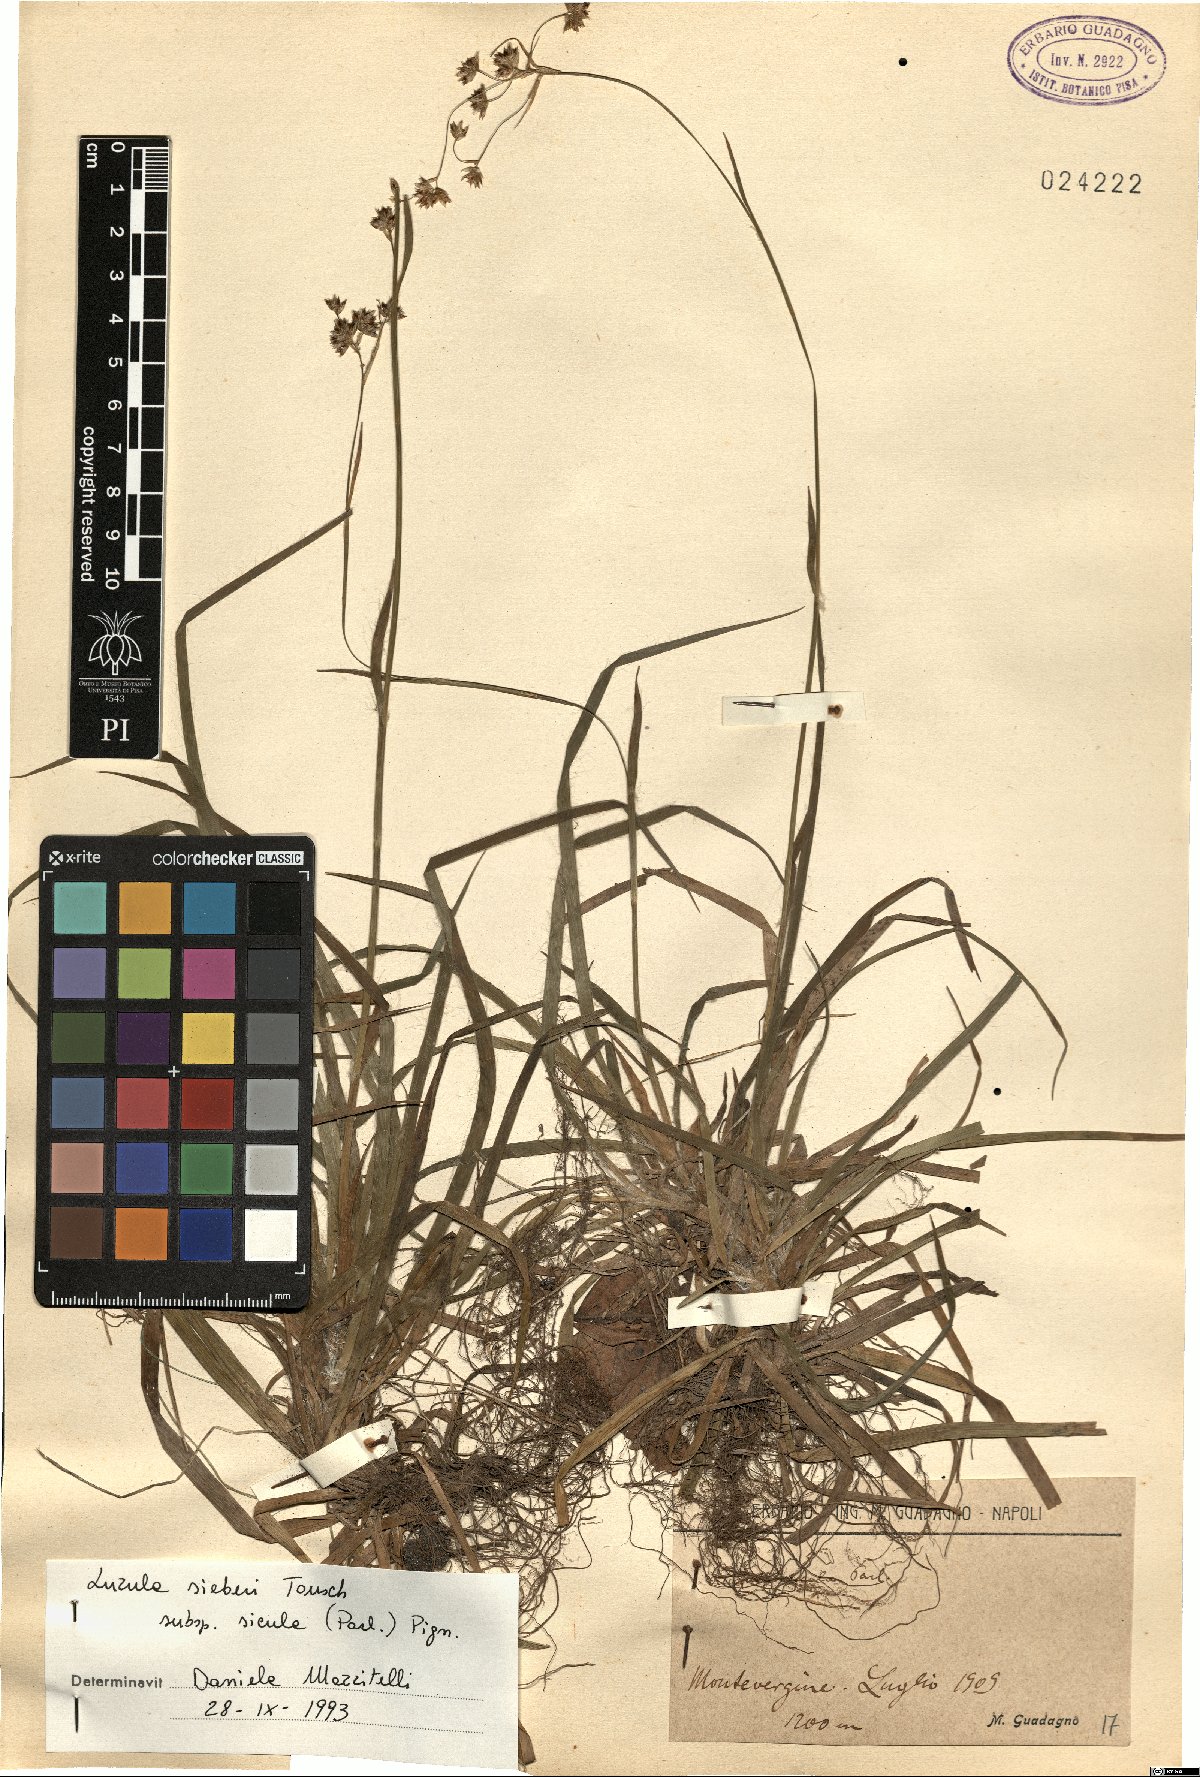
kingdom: Plantae
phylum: Tracheophyta
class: Liliopsida
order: Poales
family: Juncaceae
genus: Luzula
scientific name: Luzula sylvatica
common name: Great wood-rush
